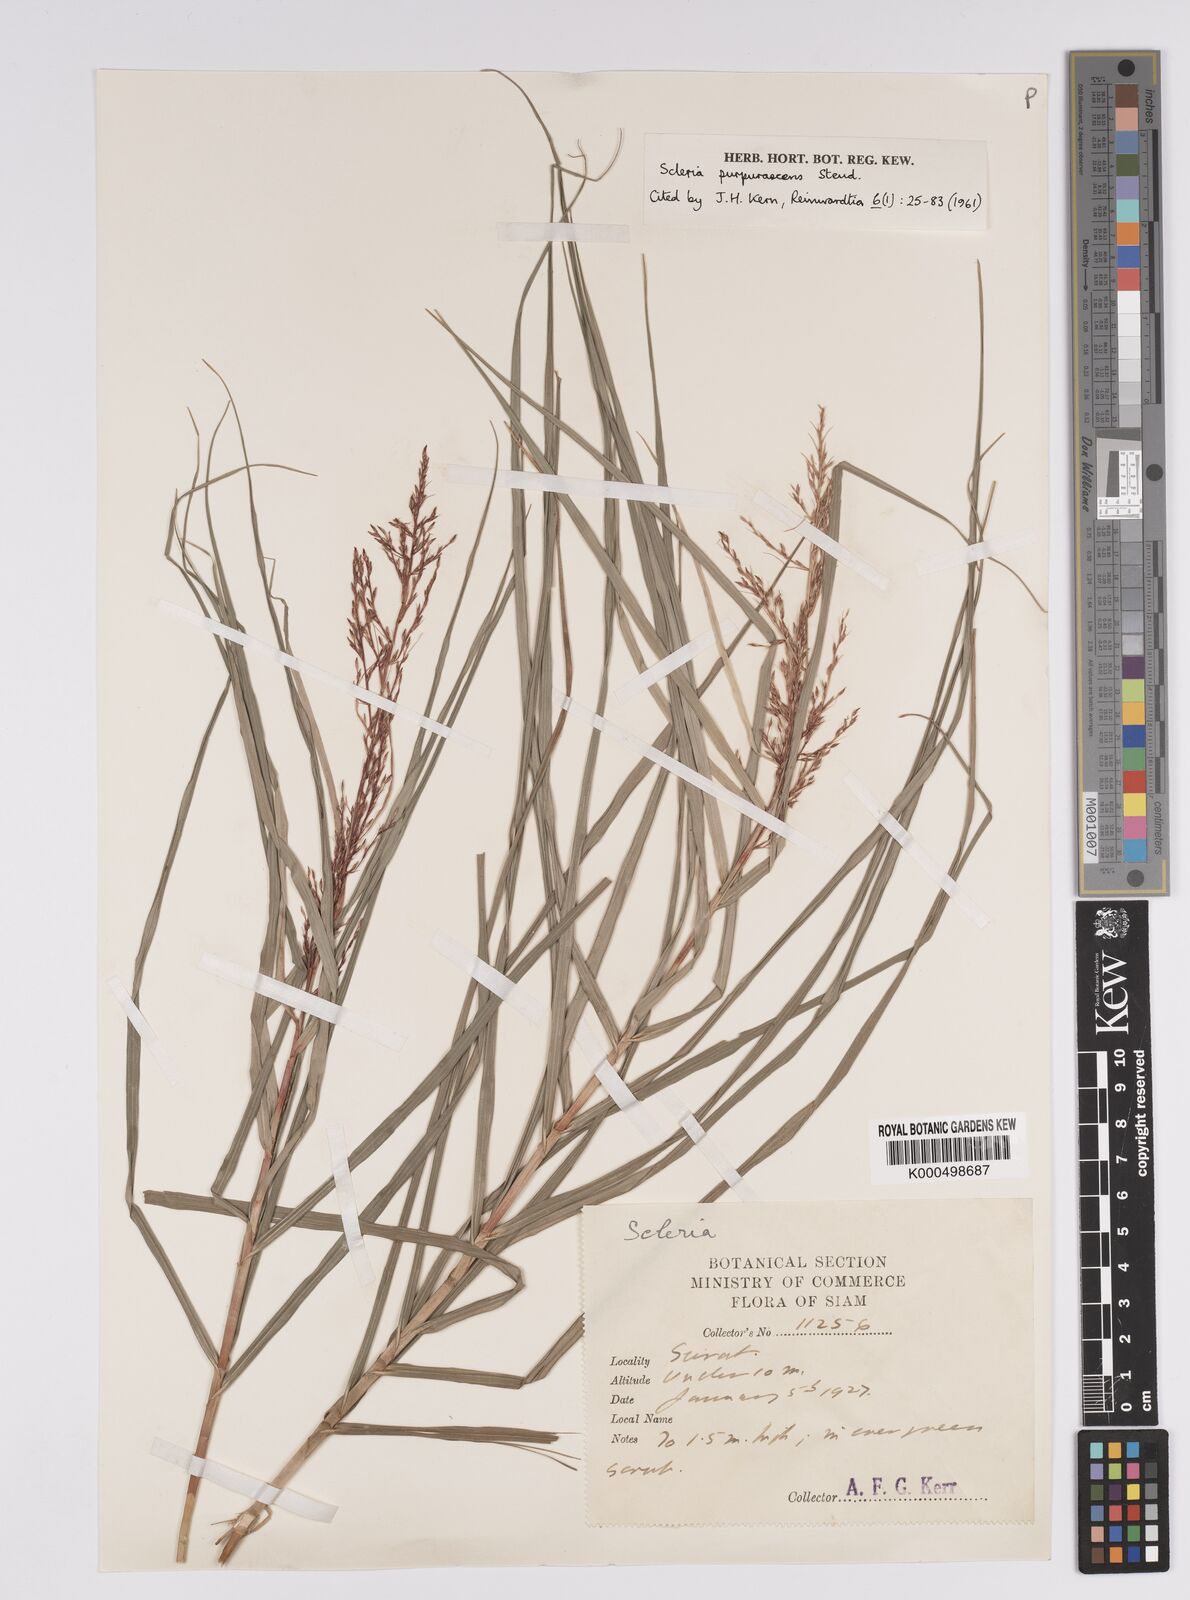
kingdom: Plantae
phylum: Tracheophyta
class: Liliopsida
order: Poales
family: Cyperaceae
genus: Scleria
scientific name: Scleria purpurascens
